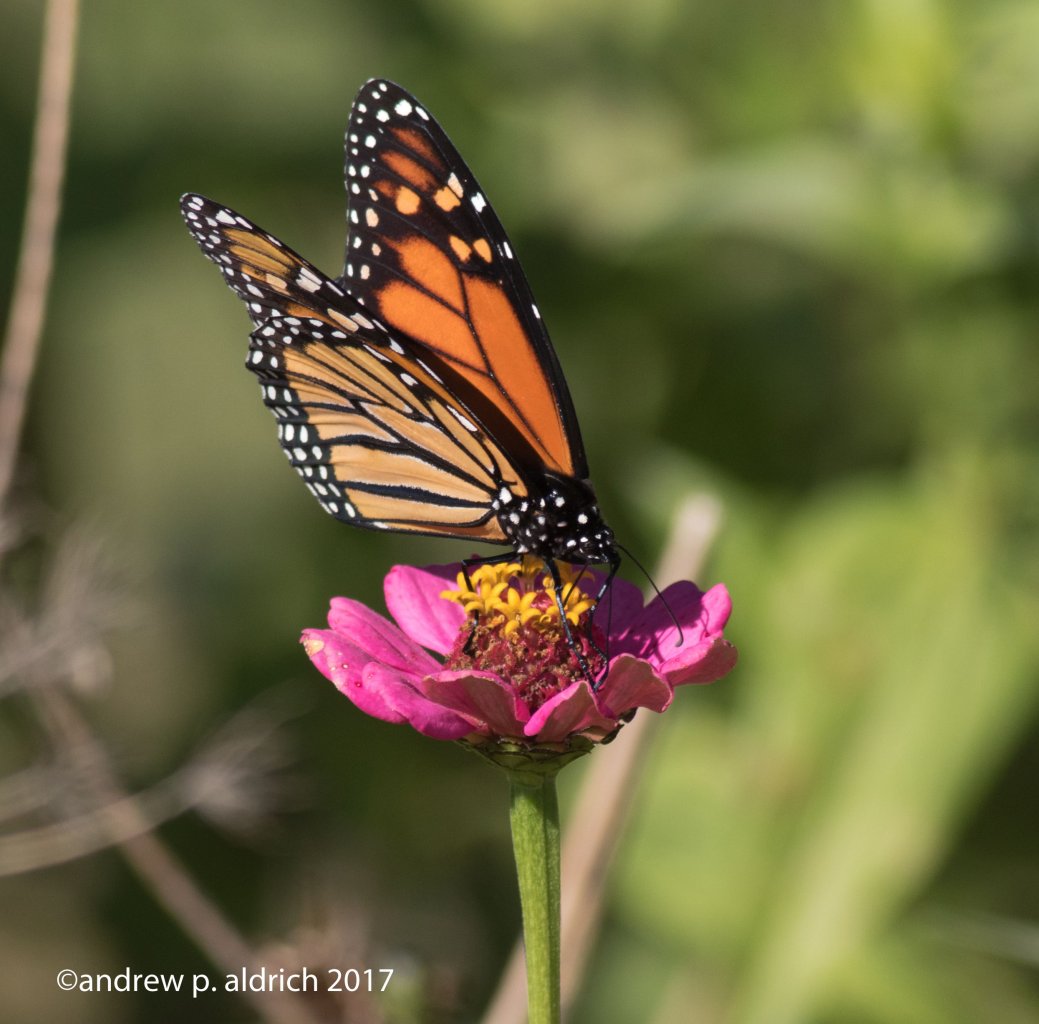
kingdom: Animalia
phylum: Arthropoda
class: Insecta
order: Lepidoptera
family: Nymphalidae
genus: Danaus
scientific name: Danaus plexippus
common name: Monarch
